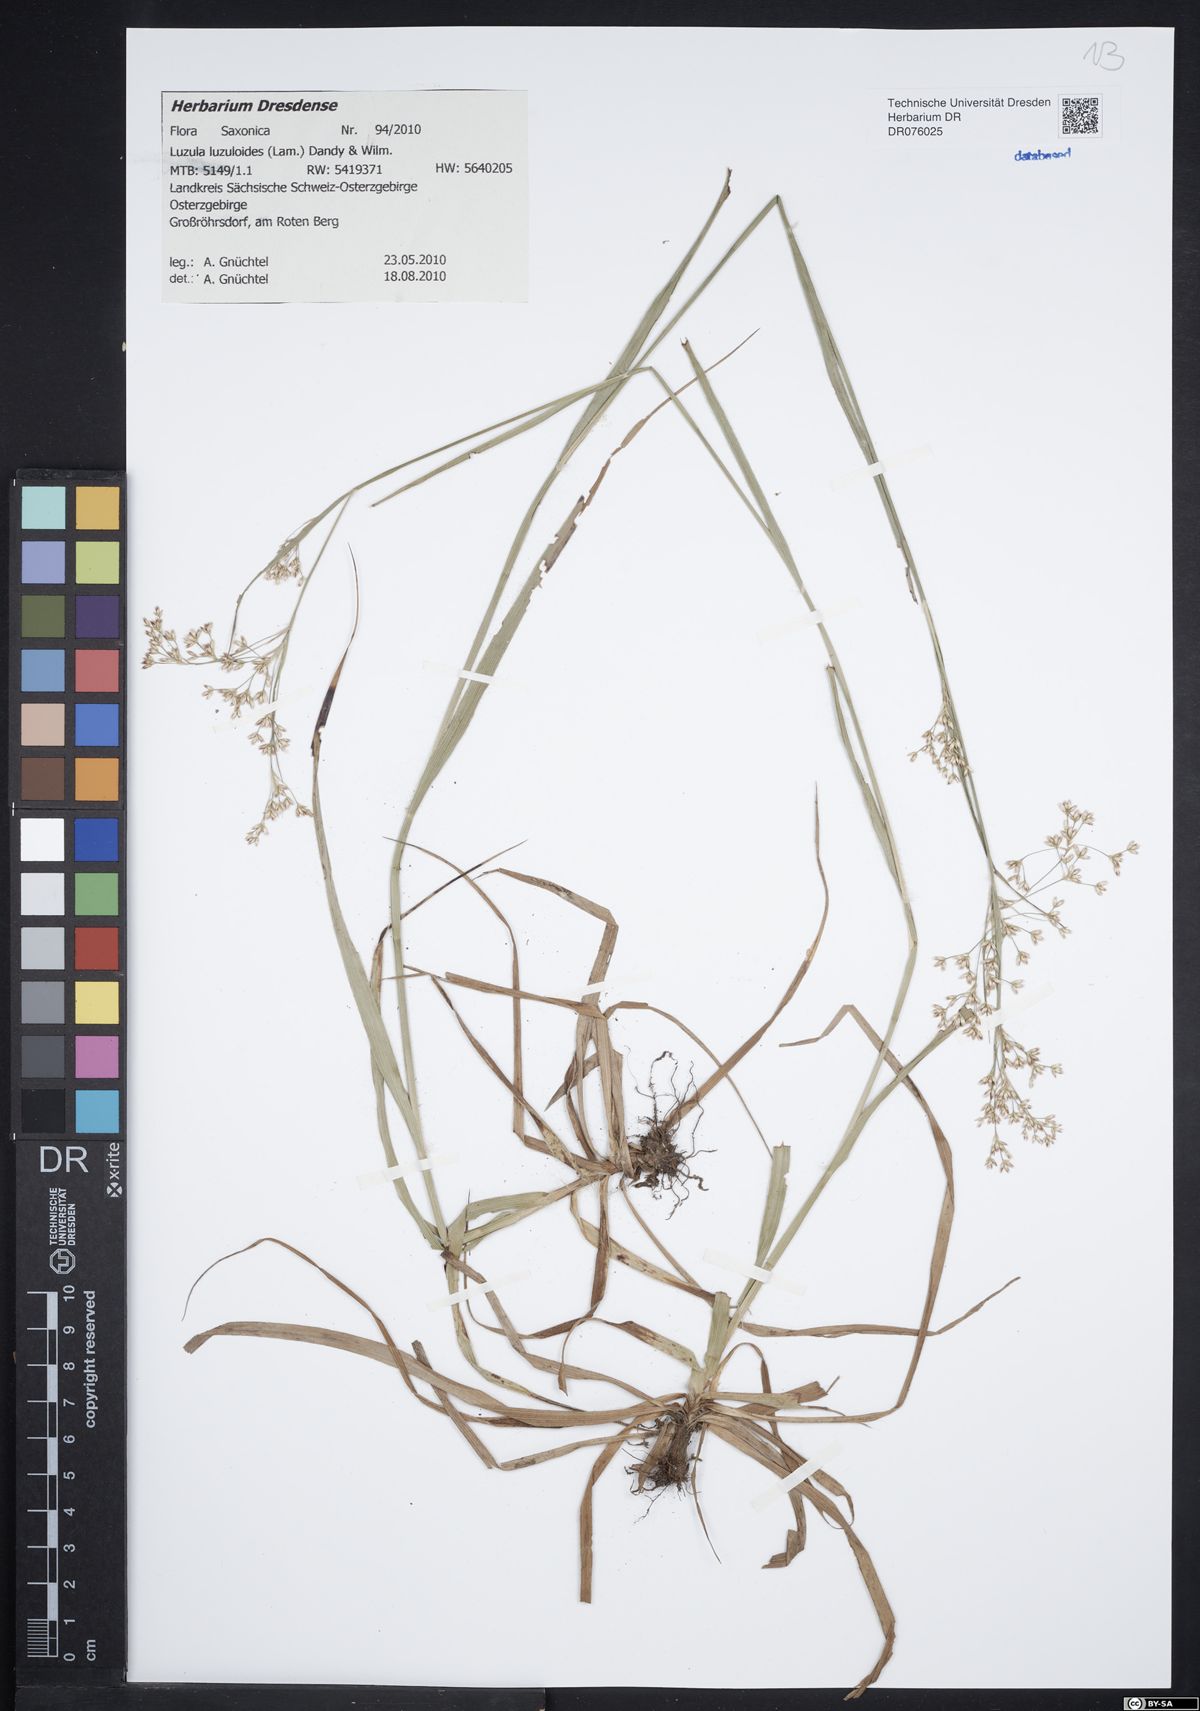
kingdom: Plantae
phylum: Tracheophyta
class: Liliopsida
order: Poales
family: Juncaceae
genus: Luzula
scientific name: Luzula luzuloides
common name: White wood-rush
